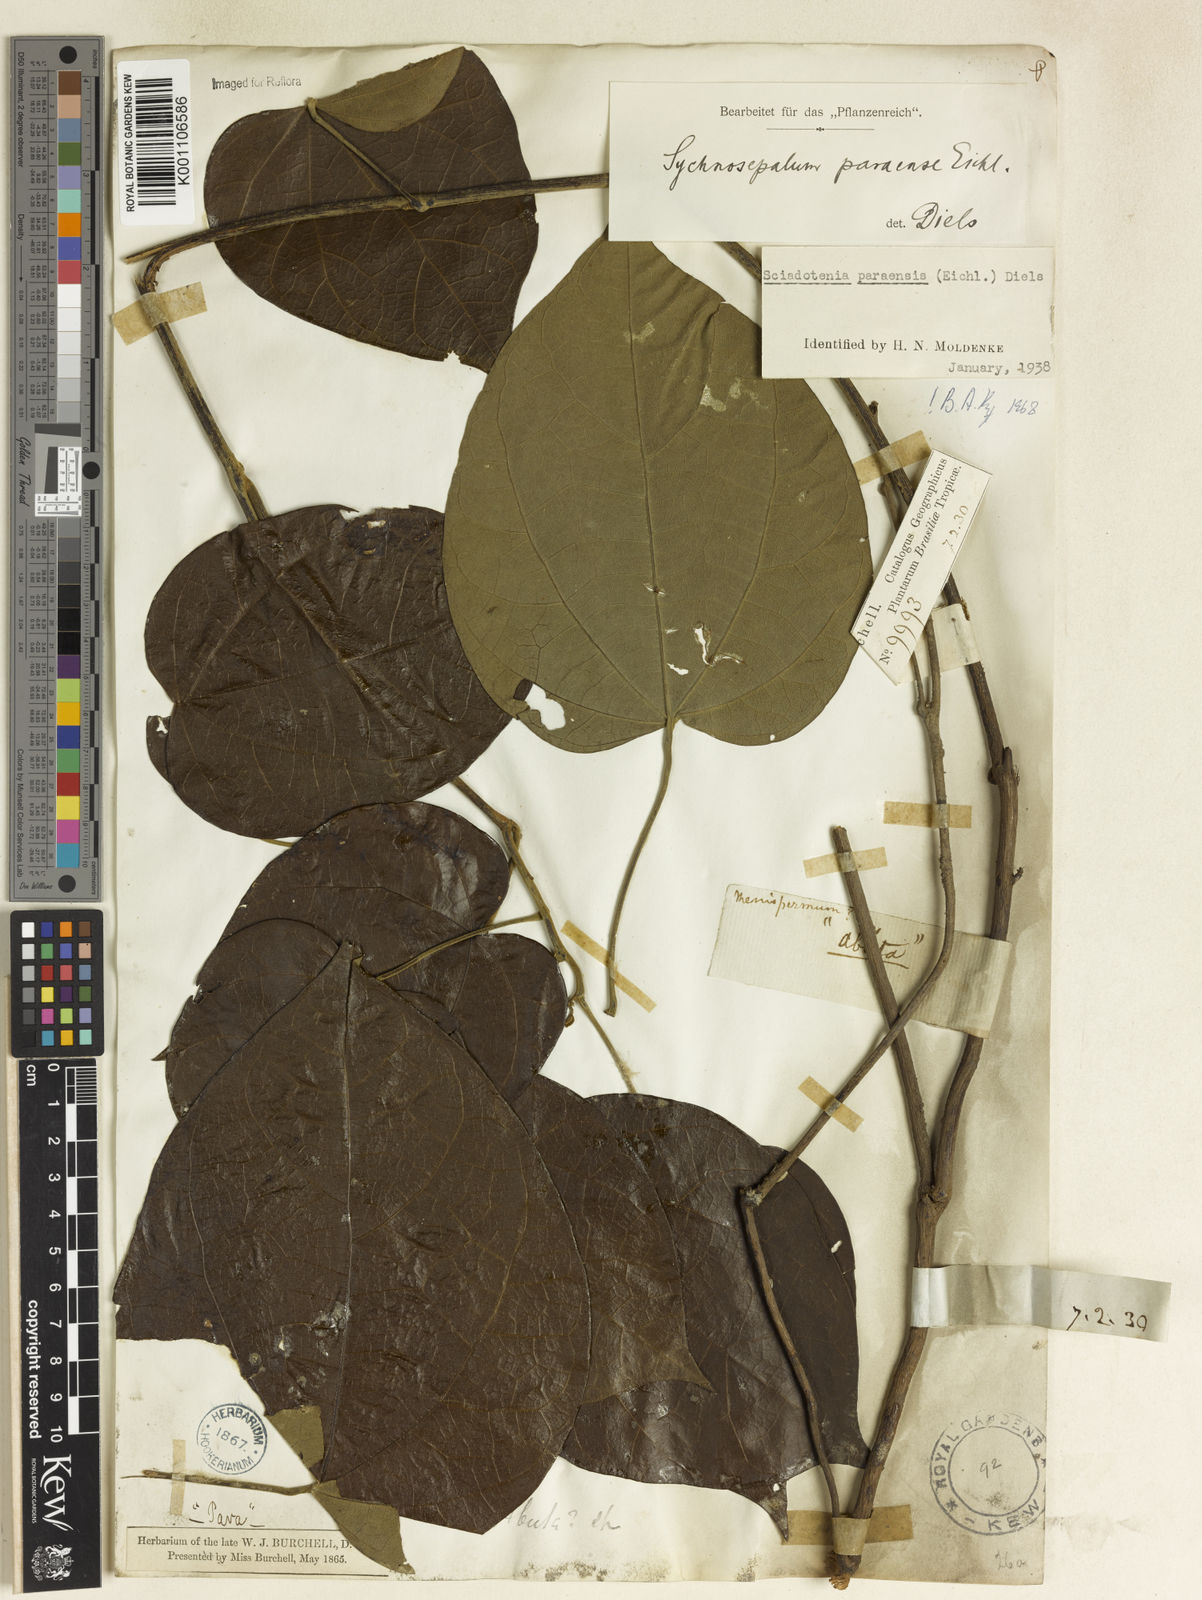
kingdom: Plantae
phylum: Tracheophyta
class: Magnoliopsida
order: Ranunculales
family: Menispermaceae
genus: Sciadotenia
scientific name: Sciadotenia paraensis
